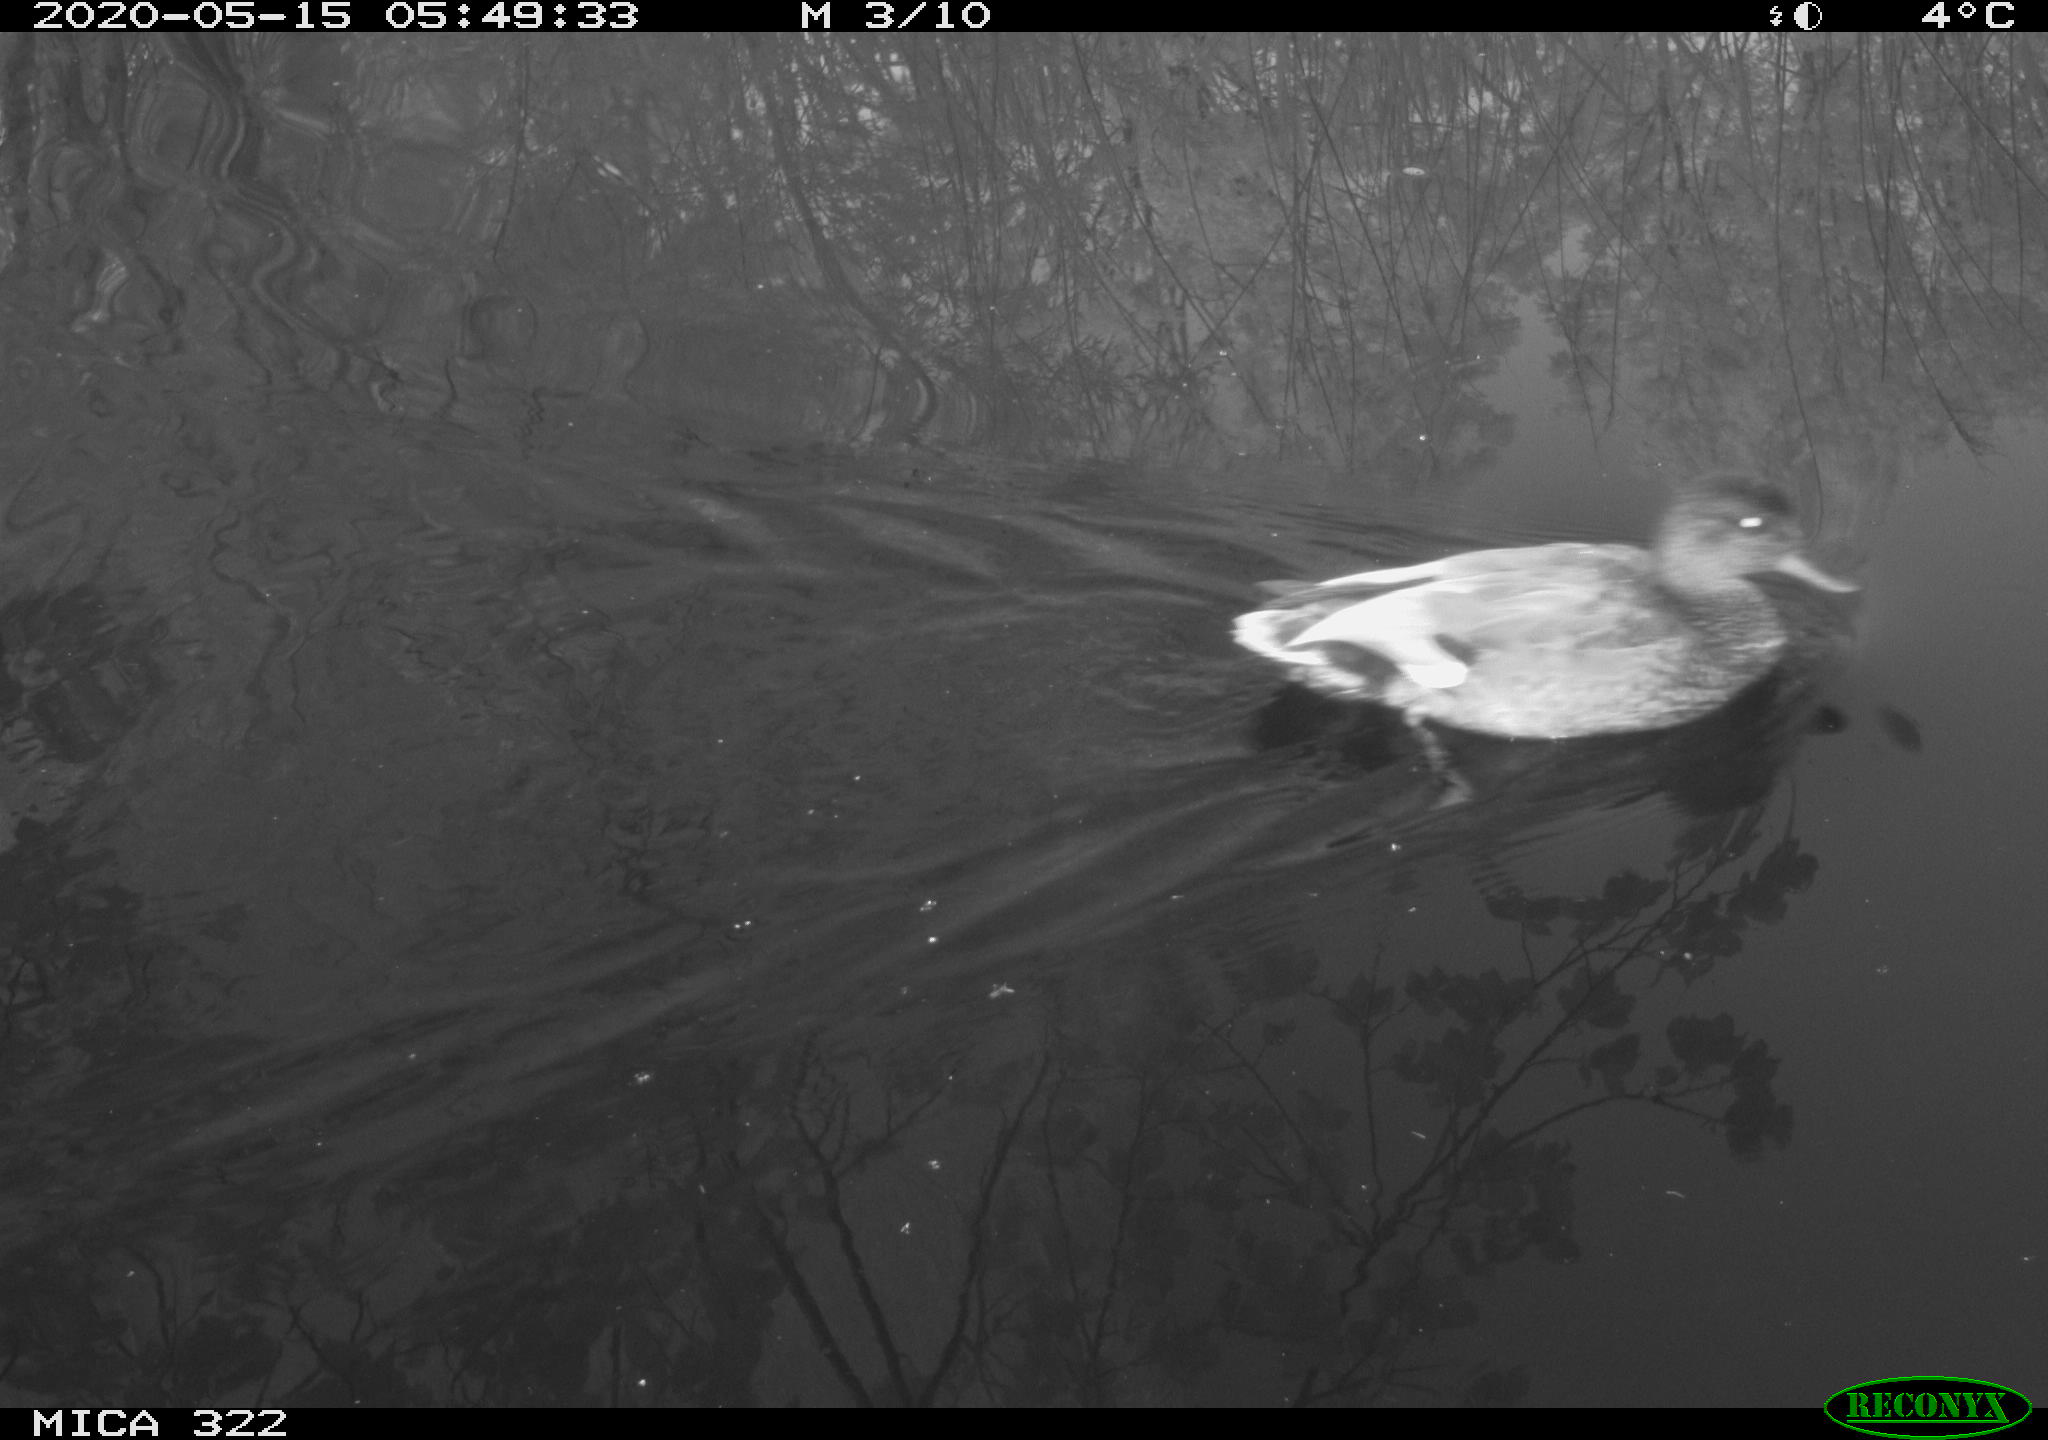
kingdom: Animalia
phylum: Chordata
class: Aves
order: Anseriformes
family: Anatidae
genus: Mareca
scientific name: Mareca strepera
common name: Gadwall
